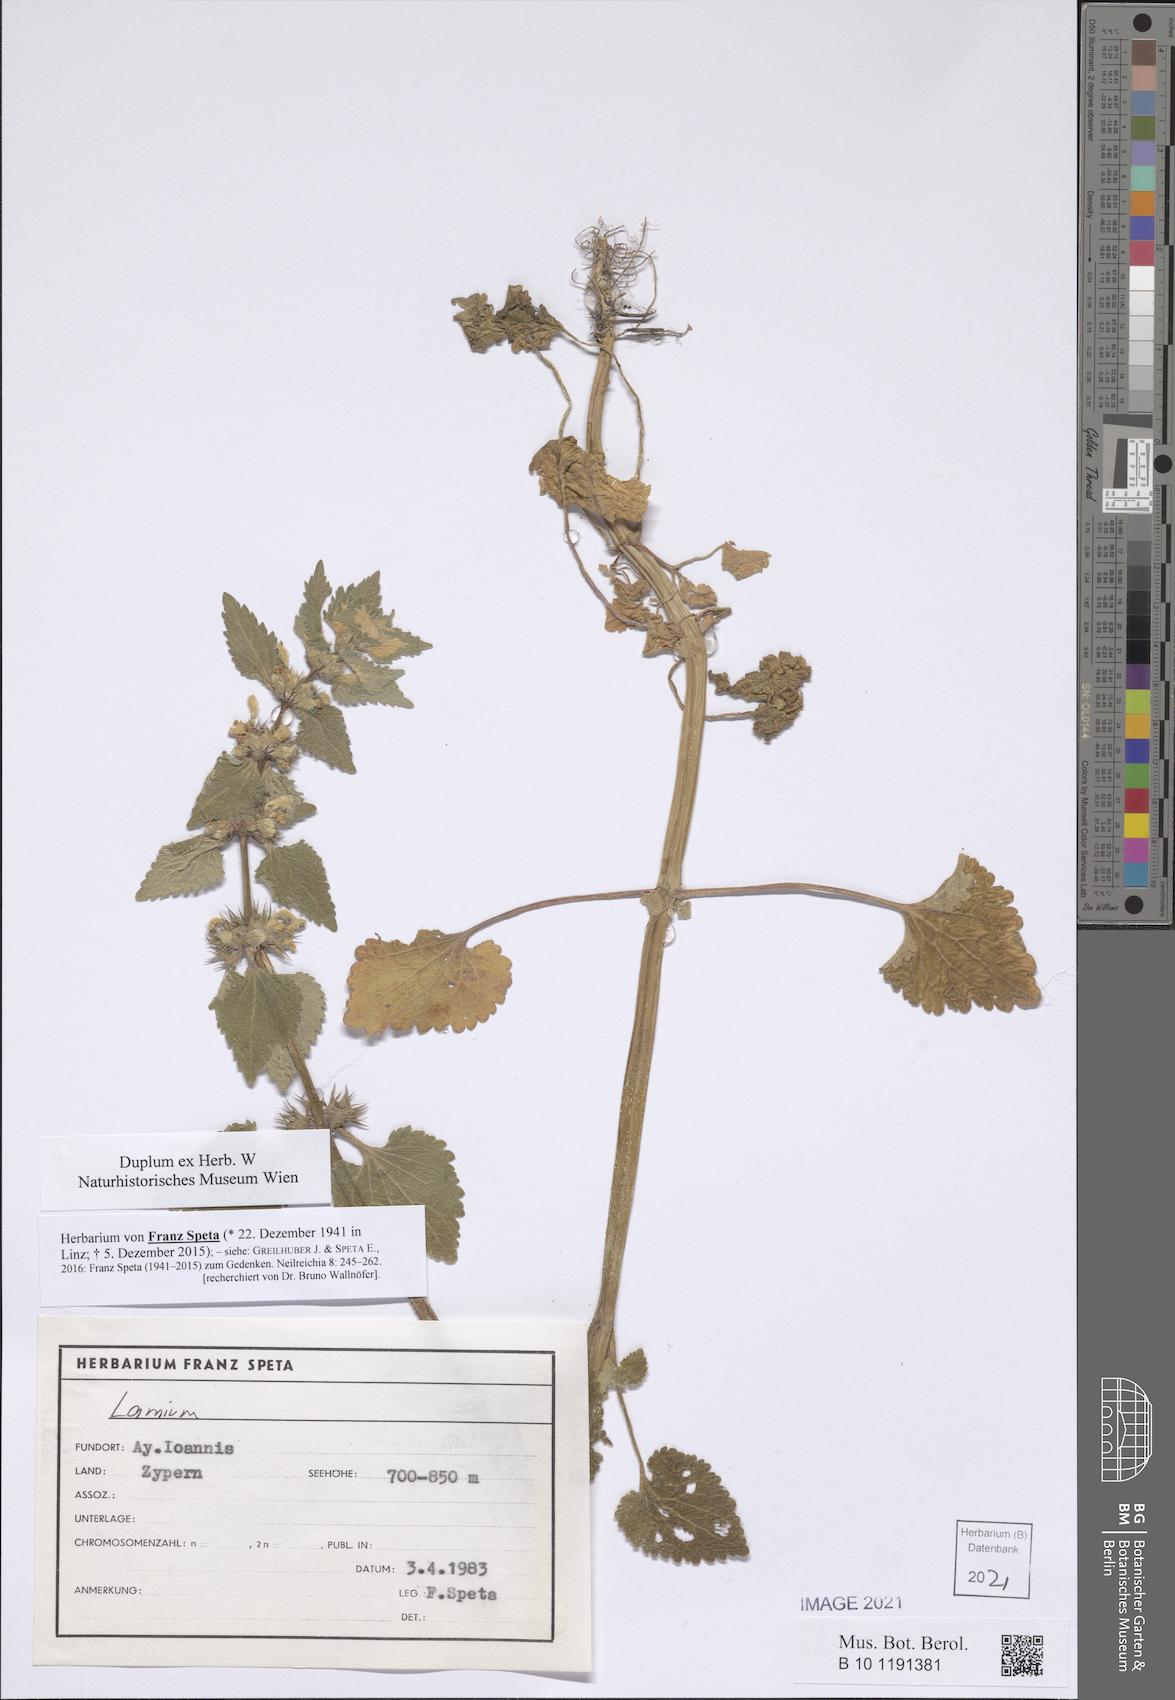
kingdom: Plantae
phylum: Tracheophyta
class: Magnoliopsida
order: Lamiales
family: Lamiaceae
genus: Lamium
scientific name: Lamium
